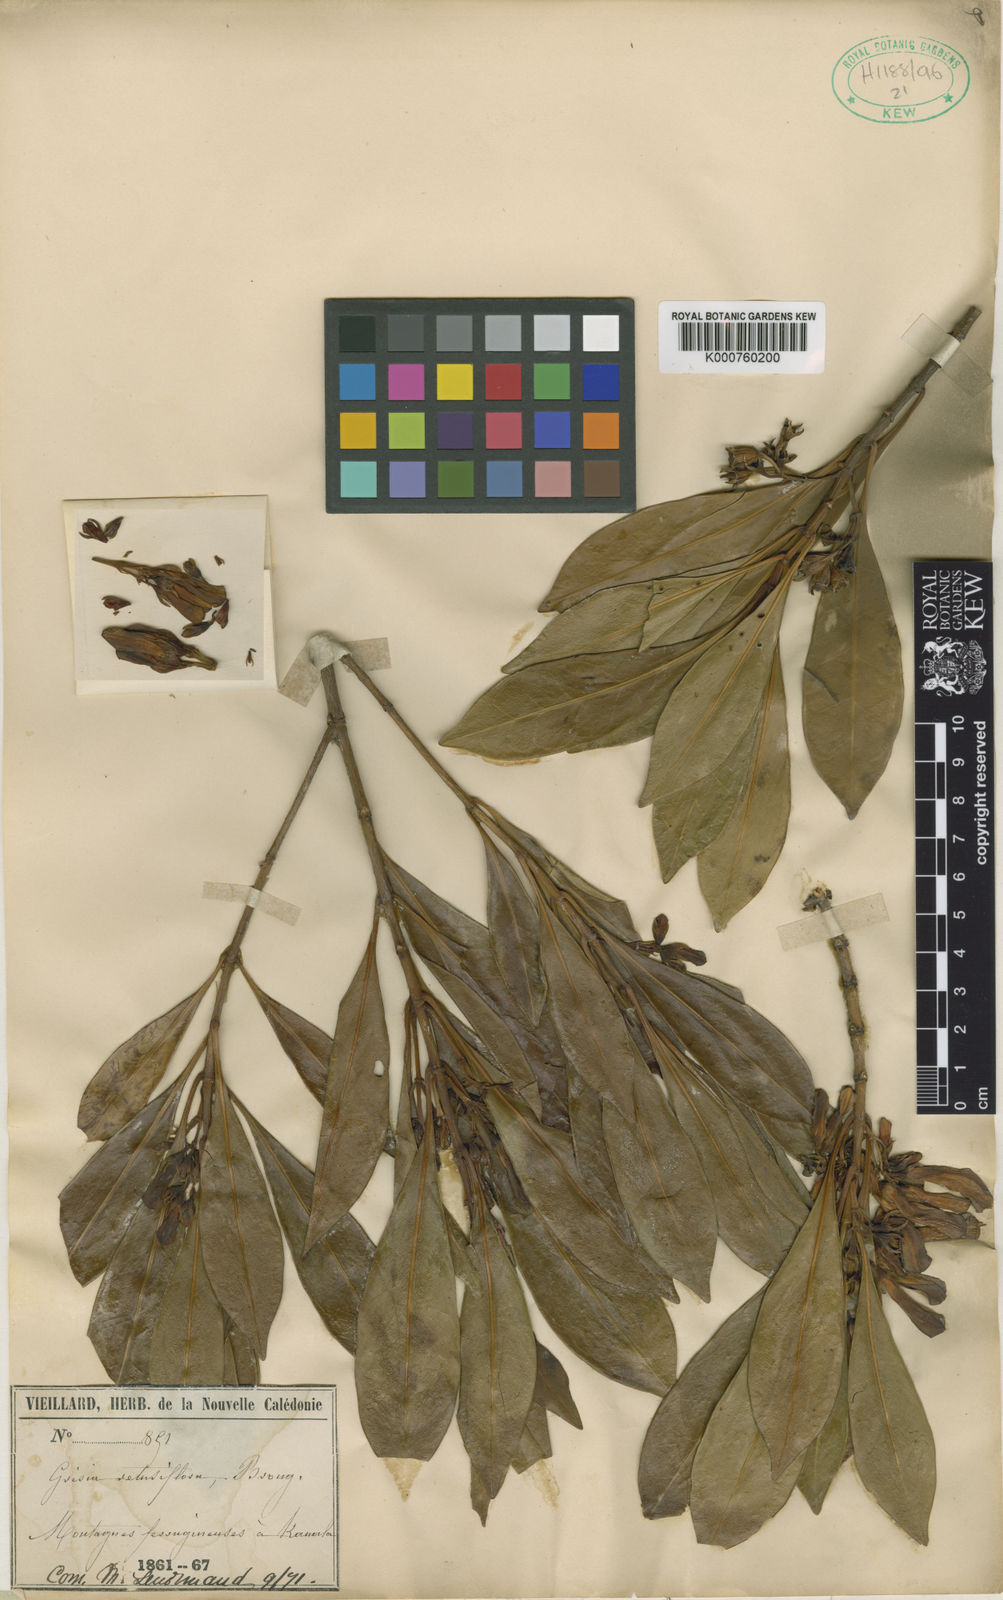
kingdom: Plantae
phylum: Tracheophyta
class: Magnoliopsida
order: Gentianales
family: Rubiaceae
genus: Thiollierea
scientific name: Thiollierea
